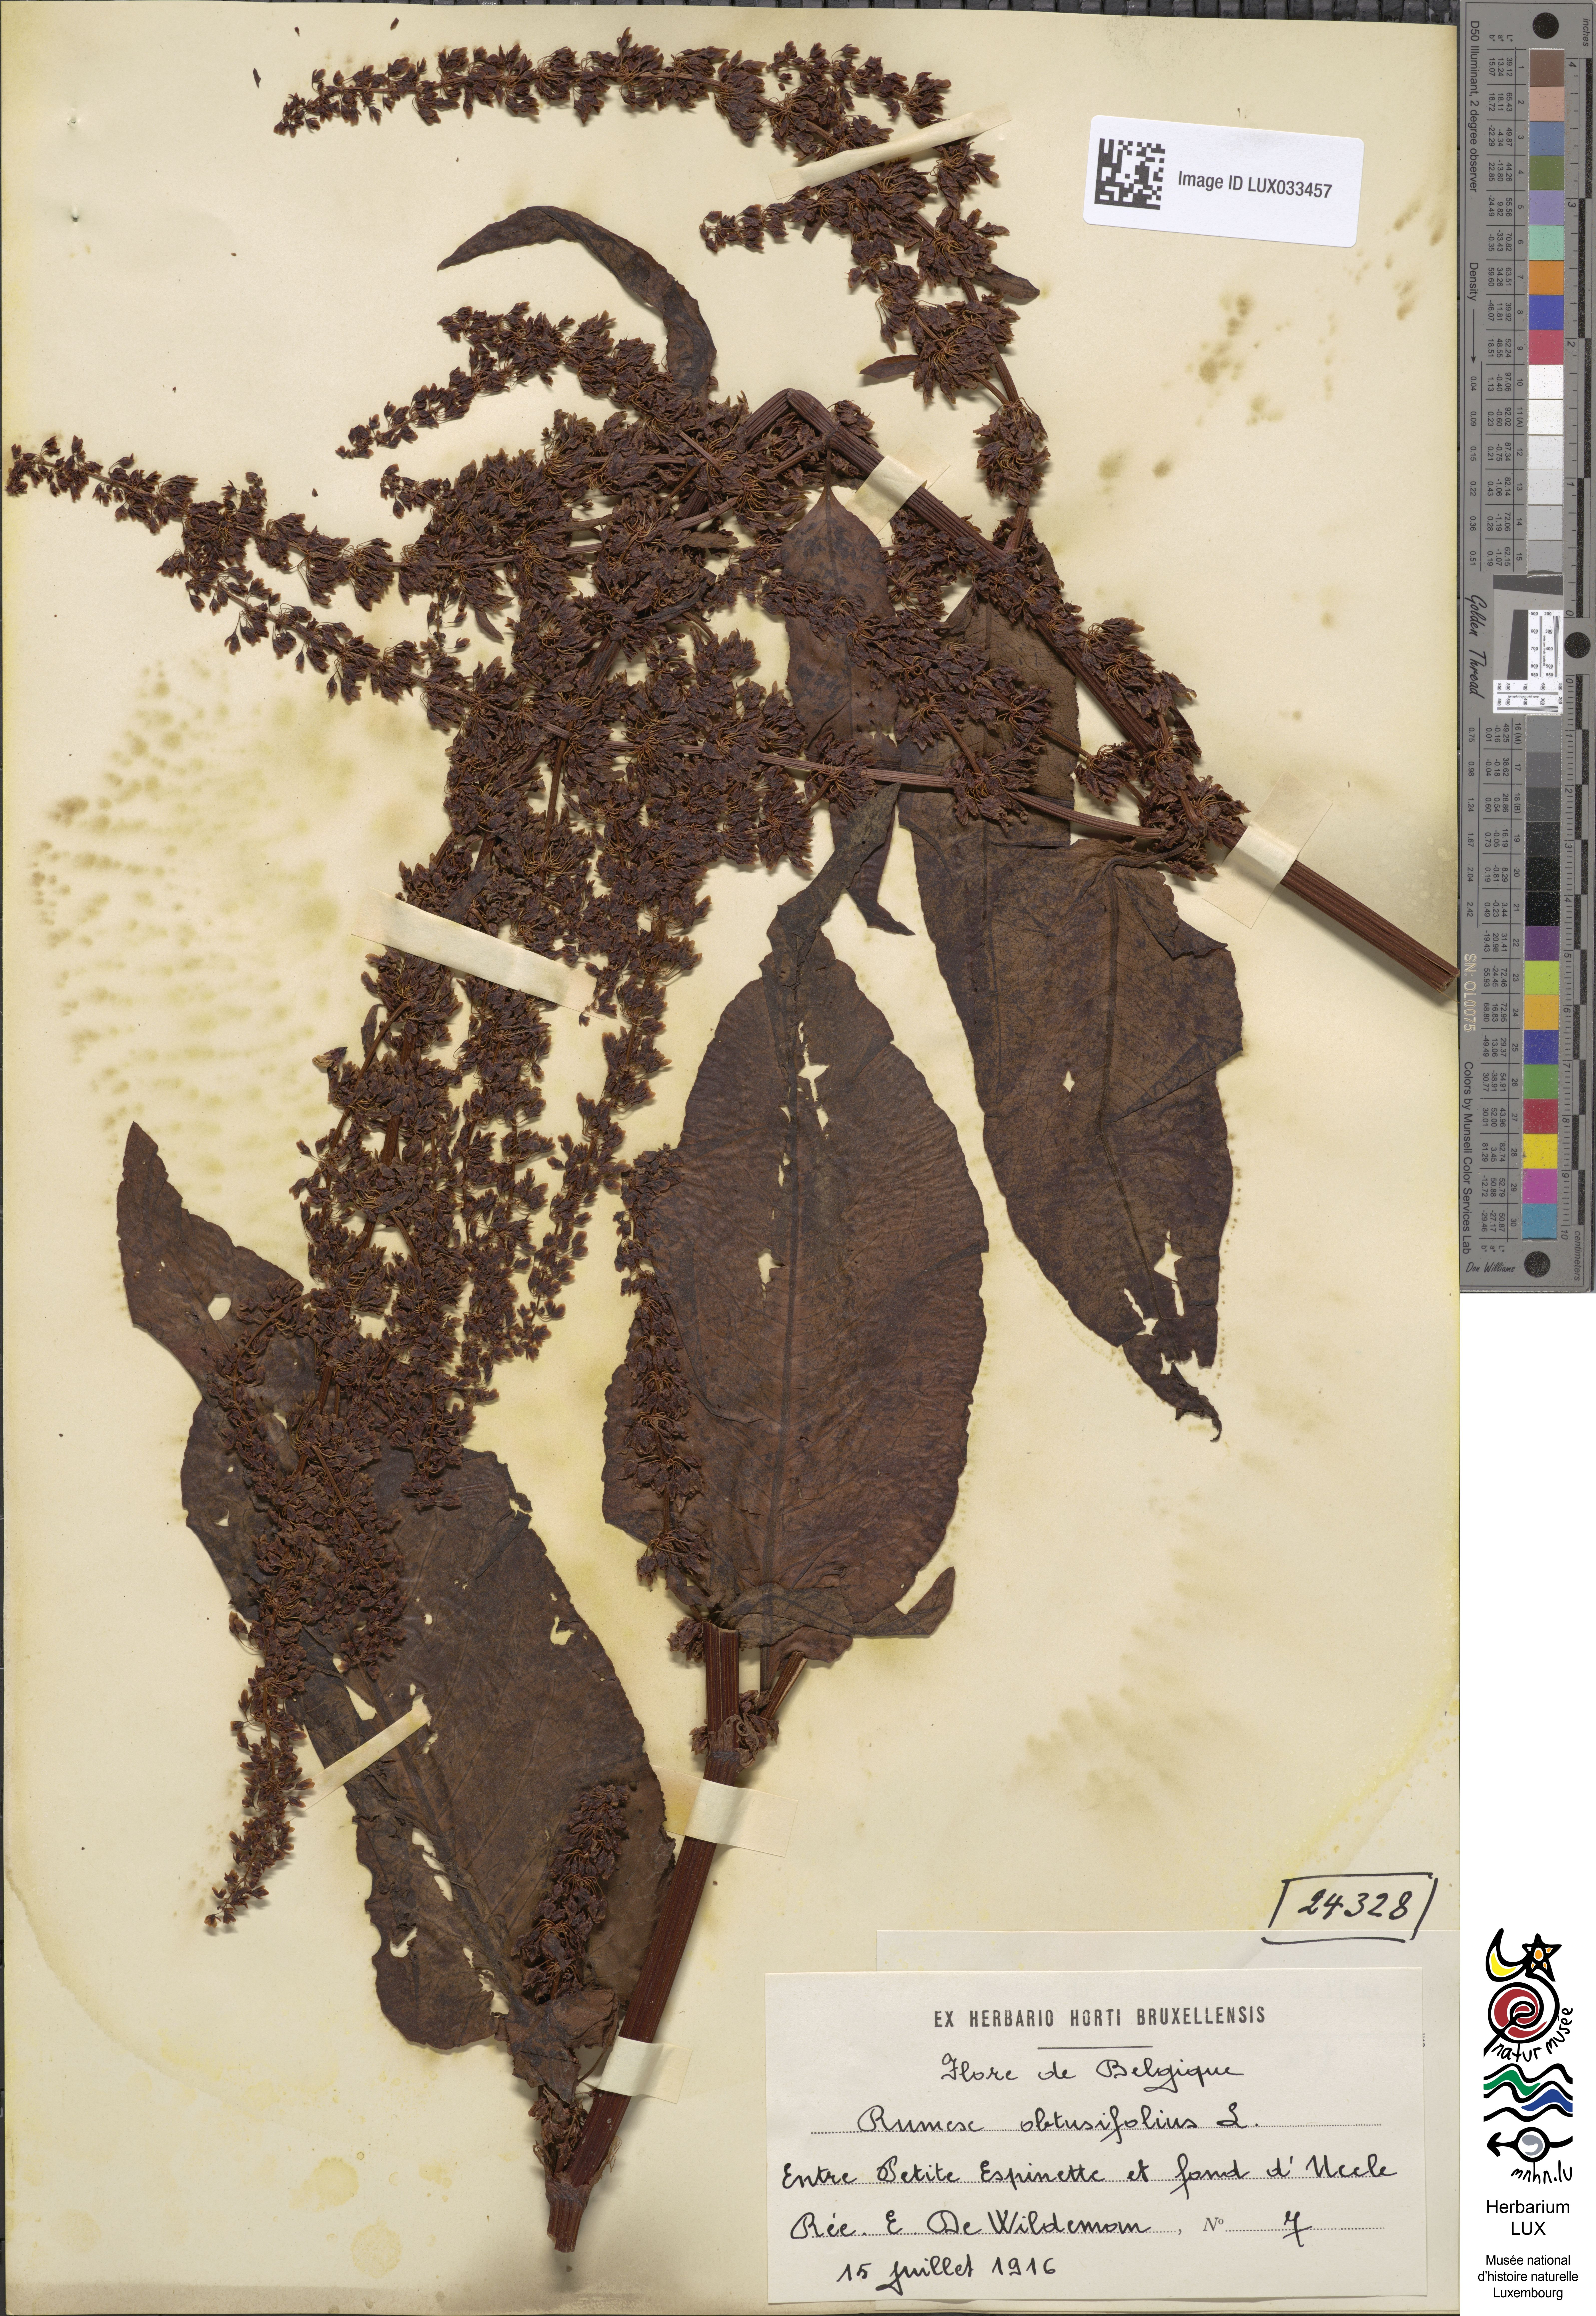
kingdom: Plantae
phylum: Tracheophyta
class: Magnoliopsida
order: Caryophyllales
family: Polygonaceae
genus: Rumex
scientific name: Rumex obtusifolius
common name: Bitter dock
